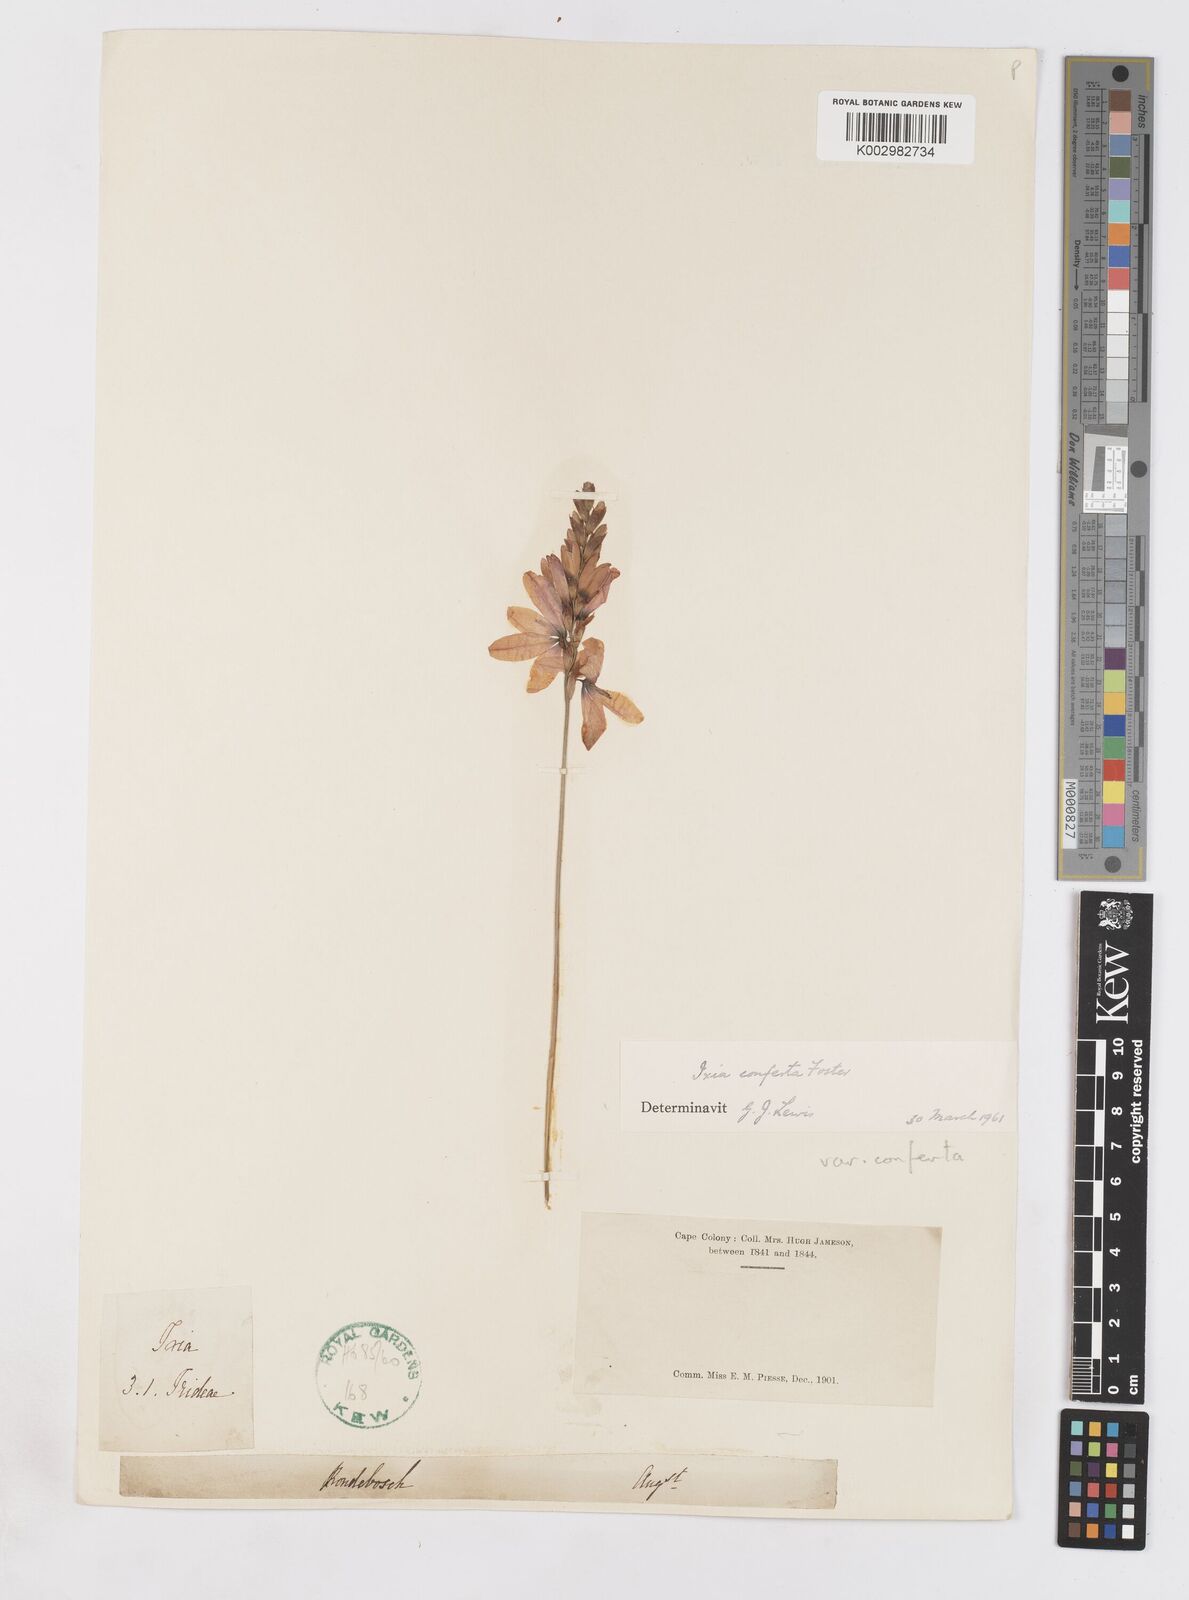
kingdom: Plantae
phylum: Tracheophyta
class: Liliopsida
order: Asparagales
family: Iridaceae
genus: Ixia
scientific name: Ixia abbreviata
